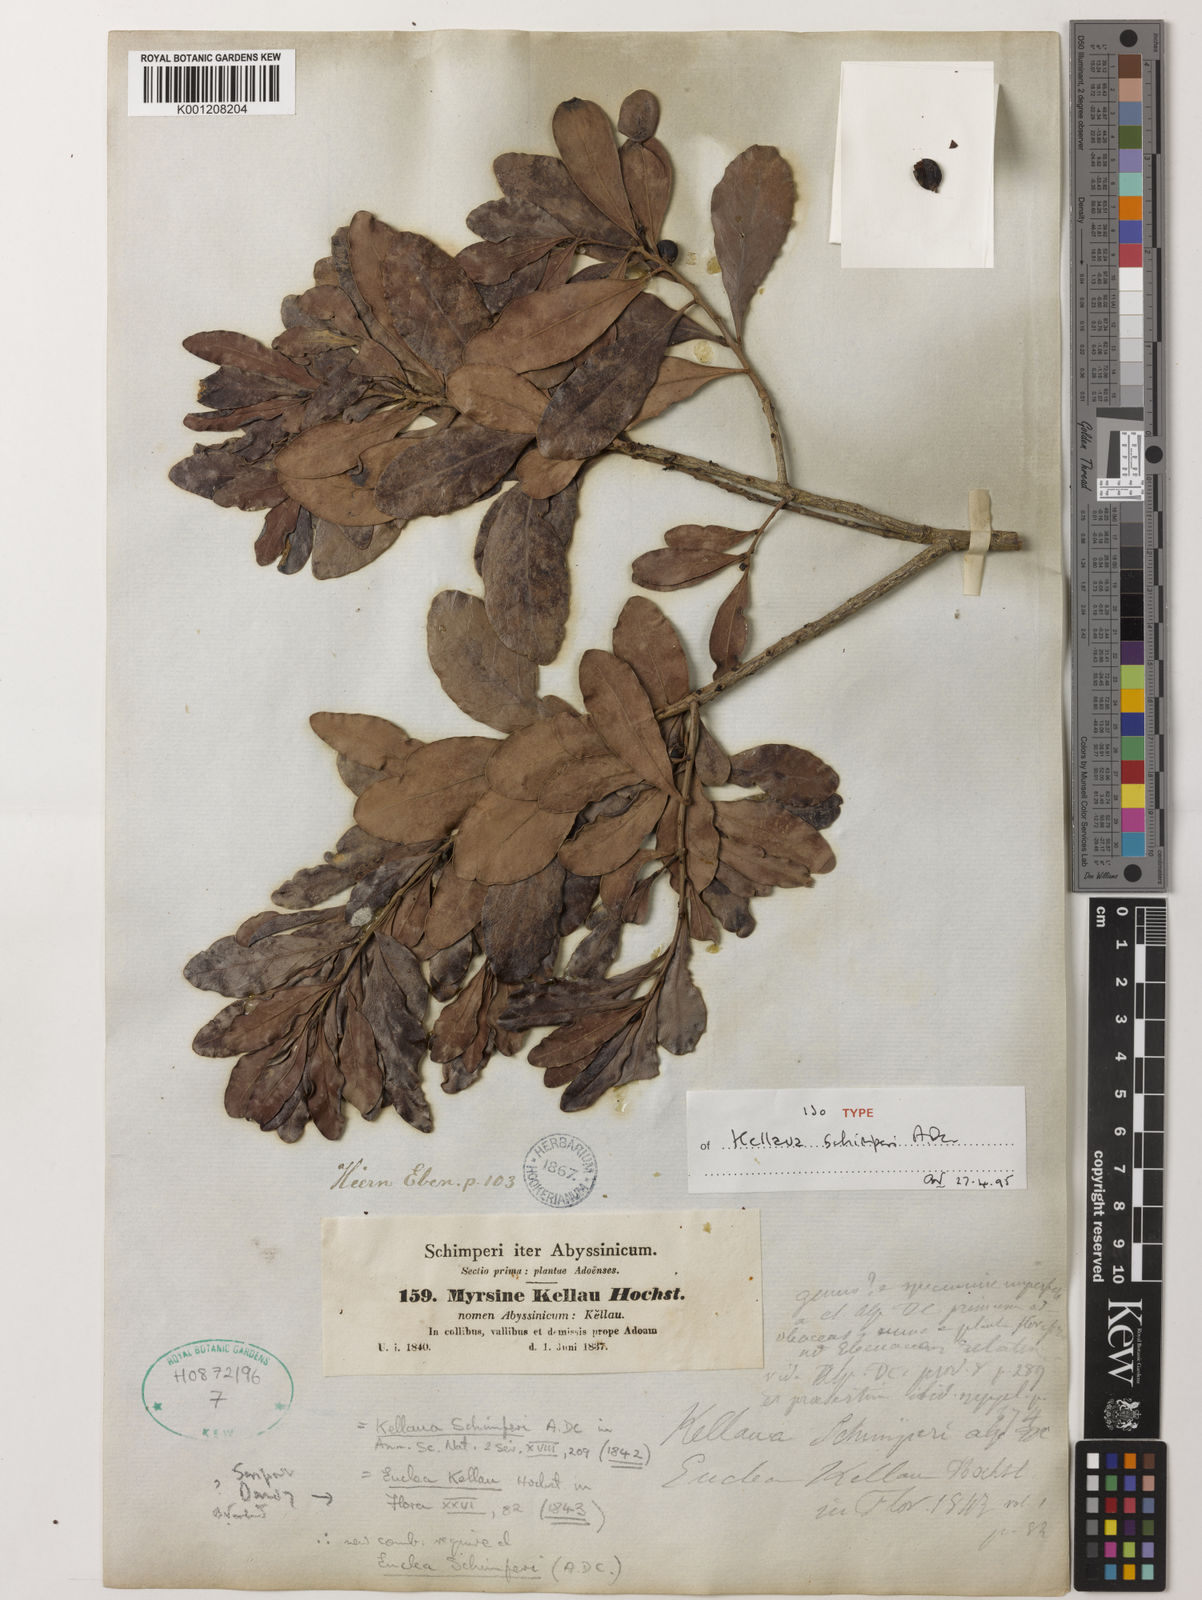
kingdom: Plantae
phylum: Tracheophyta
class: Magnoliopsida
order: Ericales
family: Ebenaceae
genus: Euclea
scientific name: Euclea racemosa
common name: Dune guarri
